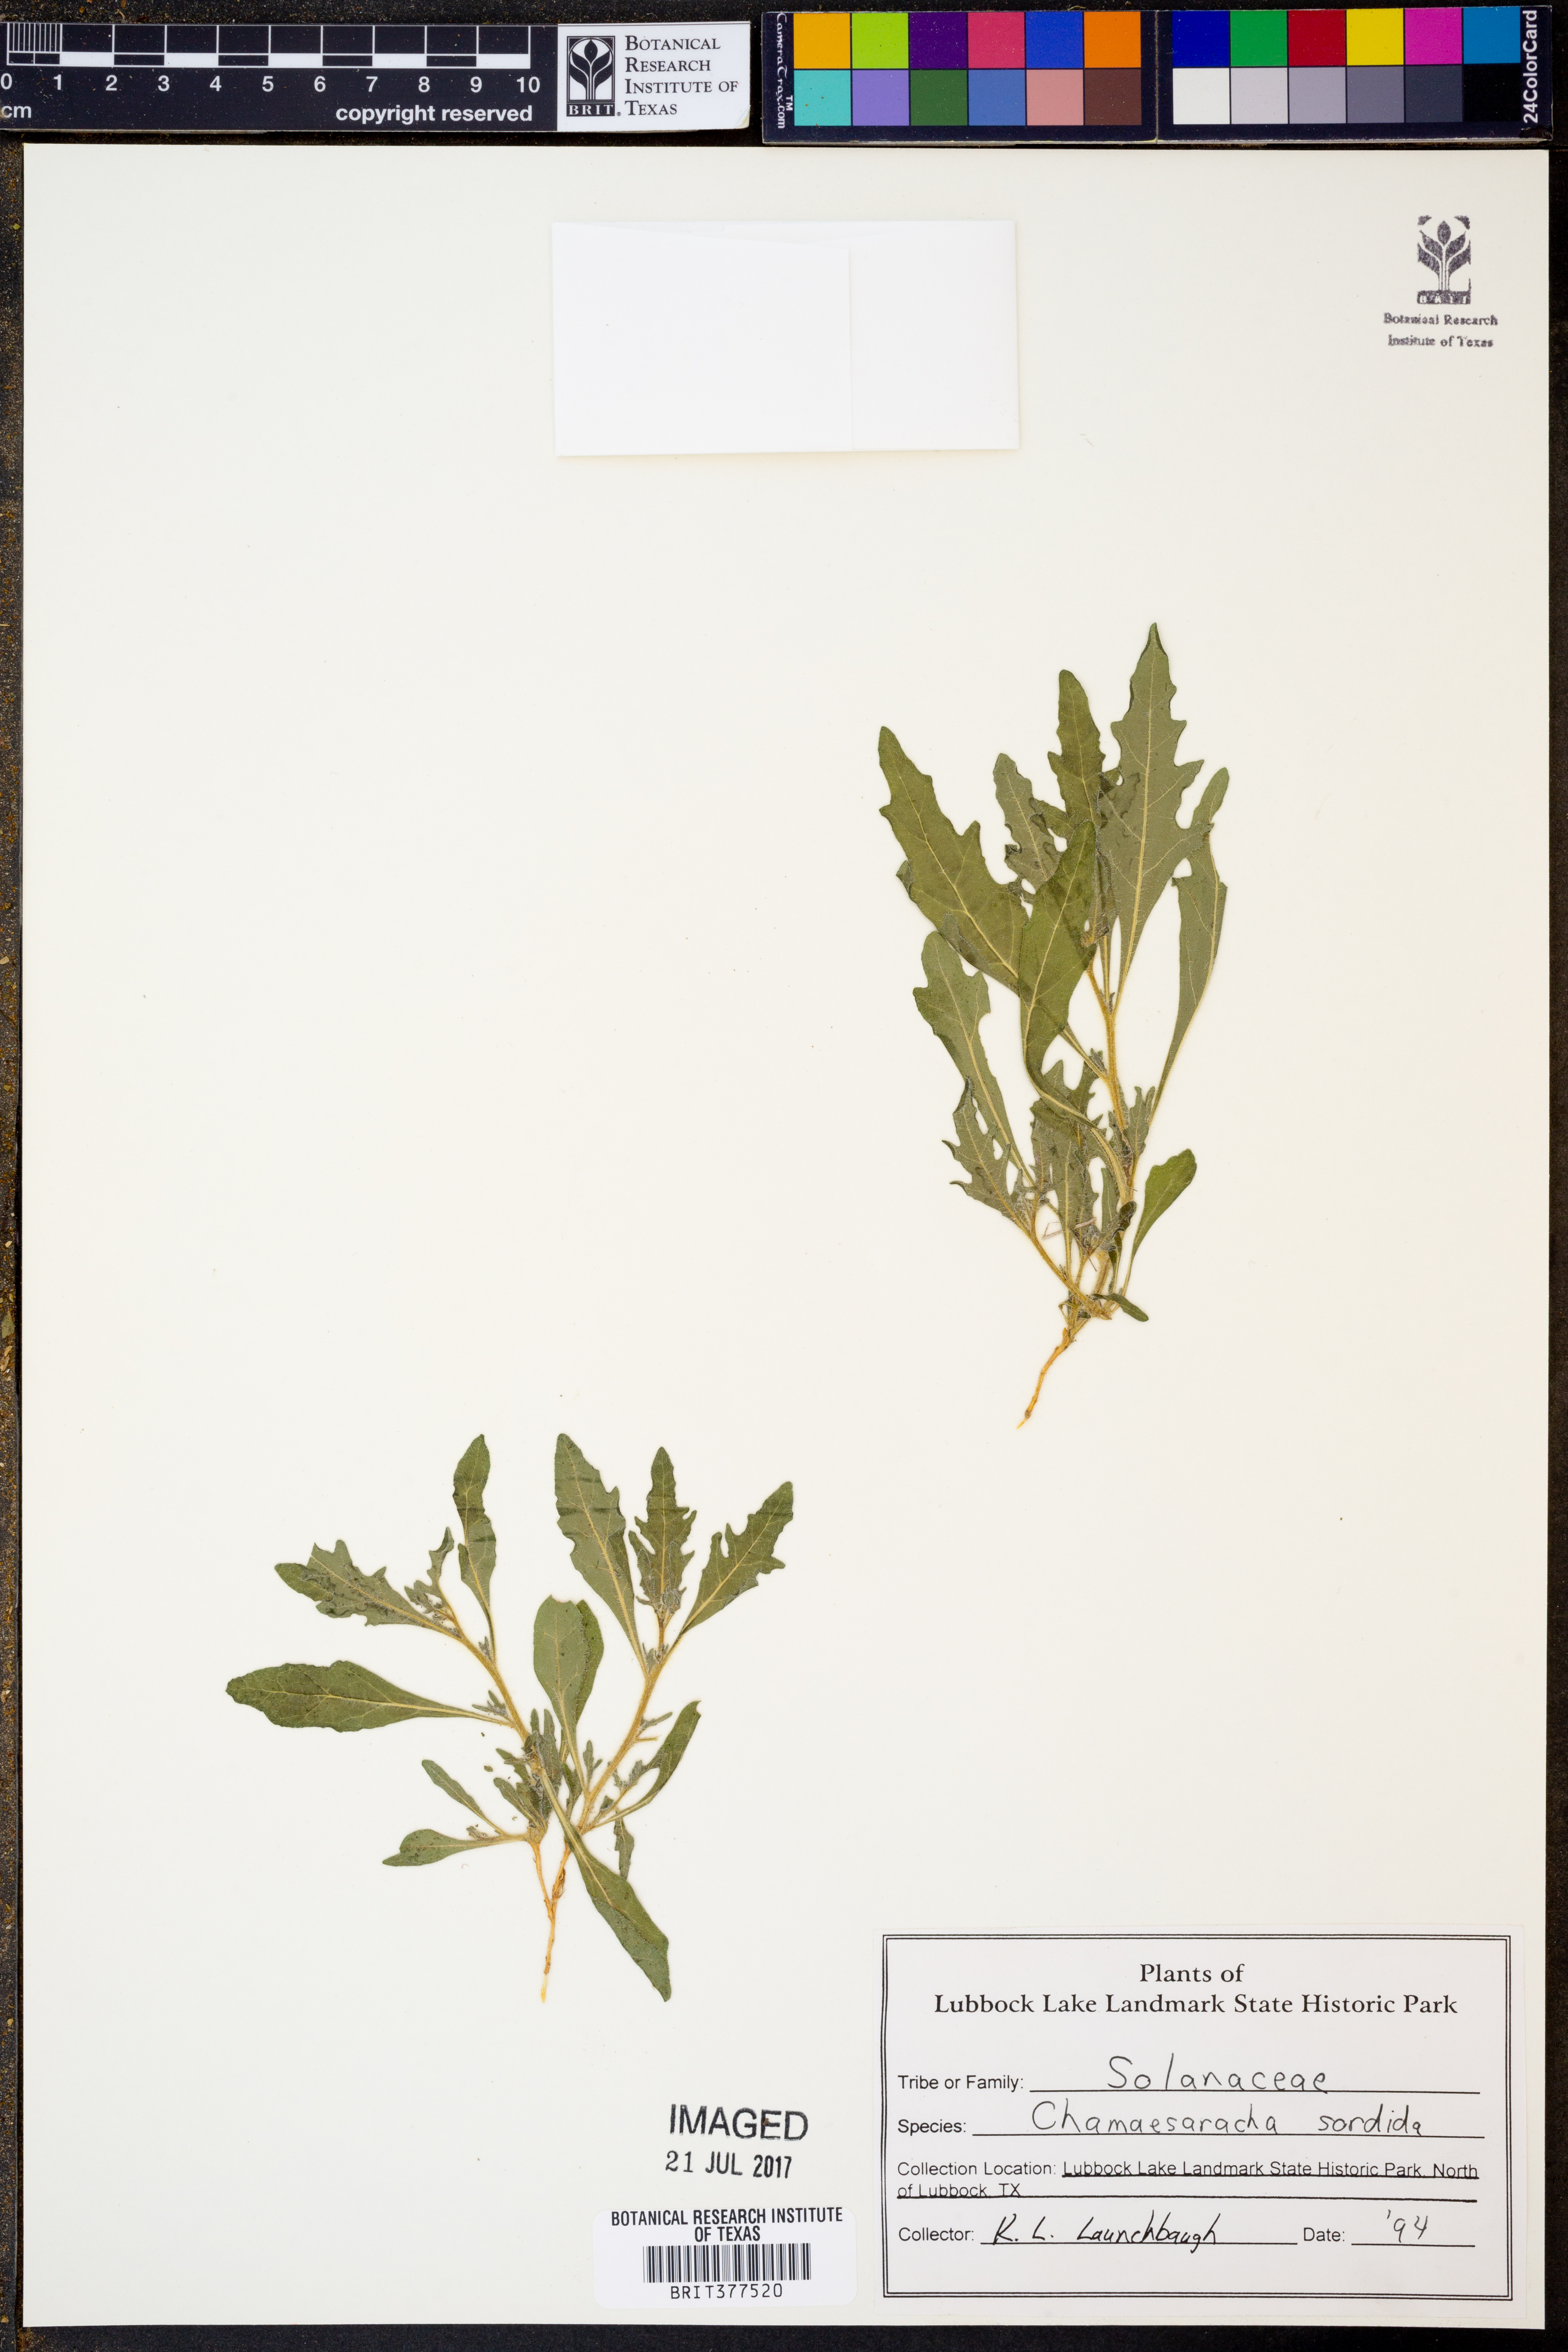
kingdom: Plantae
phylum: Tracheophyta
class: Magnoliopsida
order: Solanales
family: Solanaceae
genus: Chamaesaracha
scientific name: Chamaesaracha sordida
